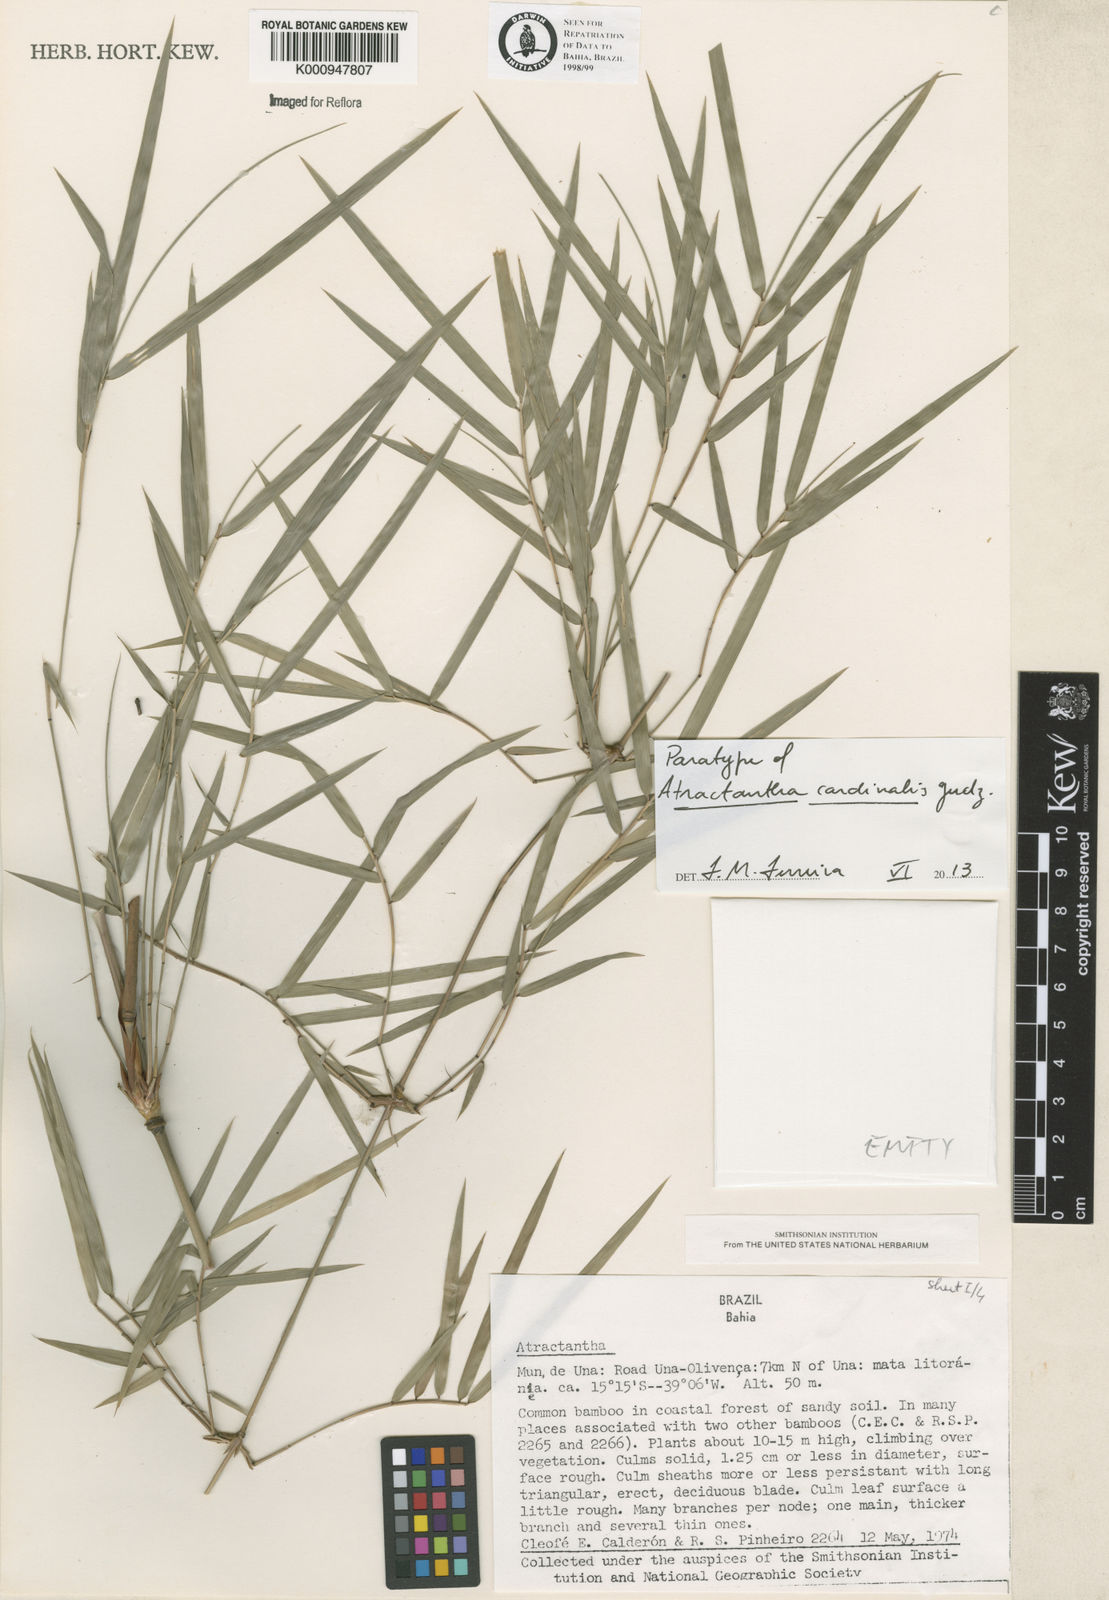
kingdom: Plantae
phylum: Tracheophyta
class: Liliopsida
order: Poales
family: Poaceae
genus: Atractantha
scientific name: Atractantha cardinalis
